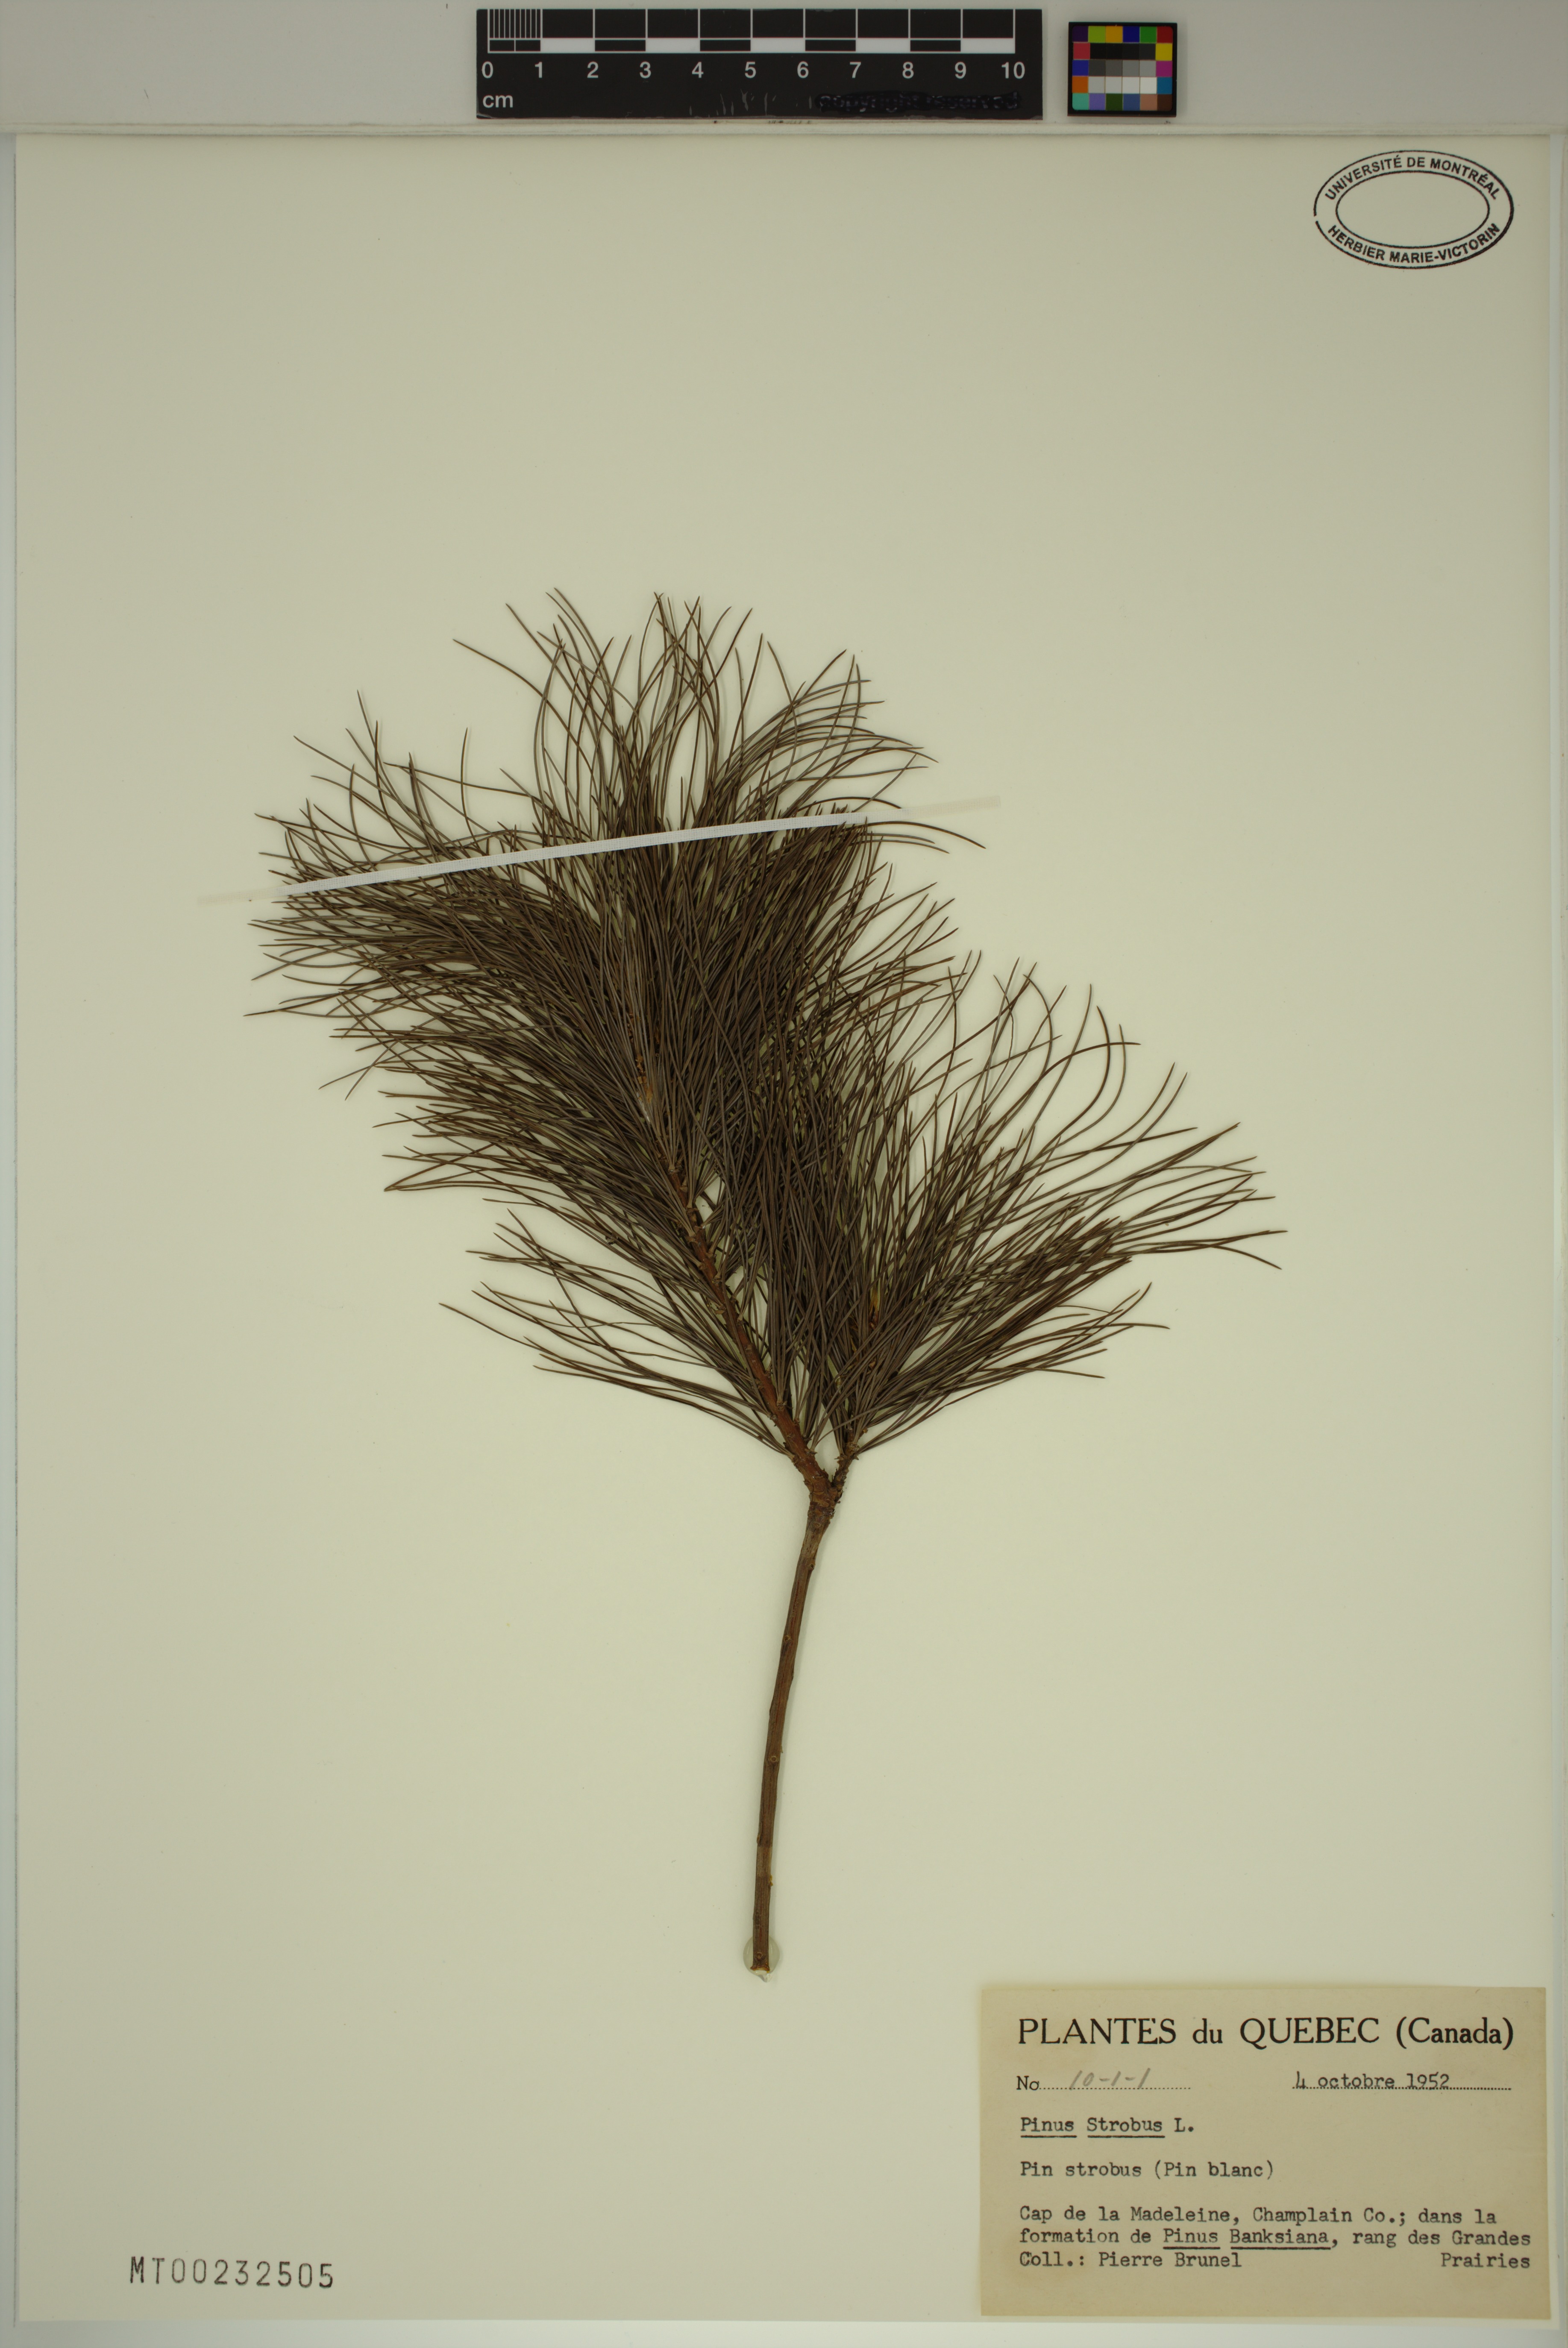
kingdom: Plantae
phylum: Tracheophyta
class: Pinopsida
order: Pinales
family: Pinaceae
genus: Pinus
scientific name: Pinus strobus
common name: Weymouth pine
